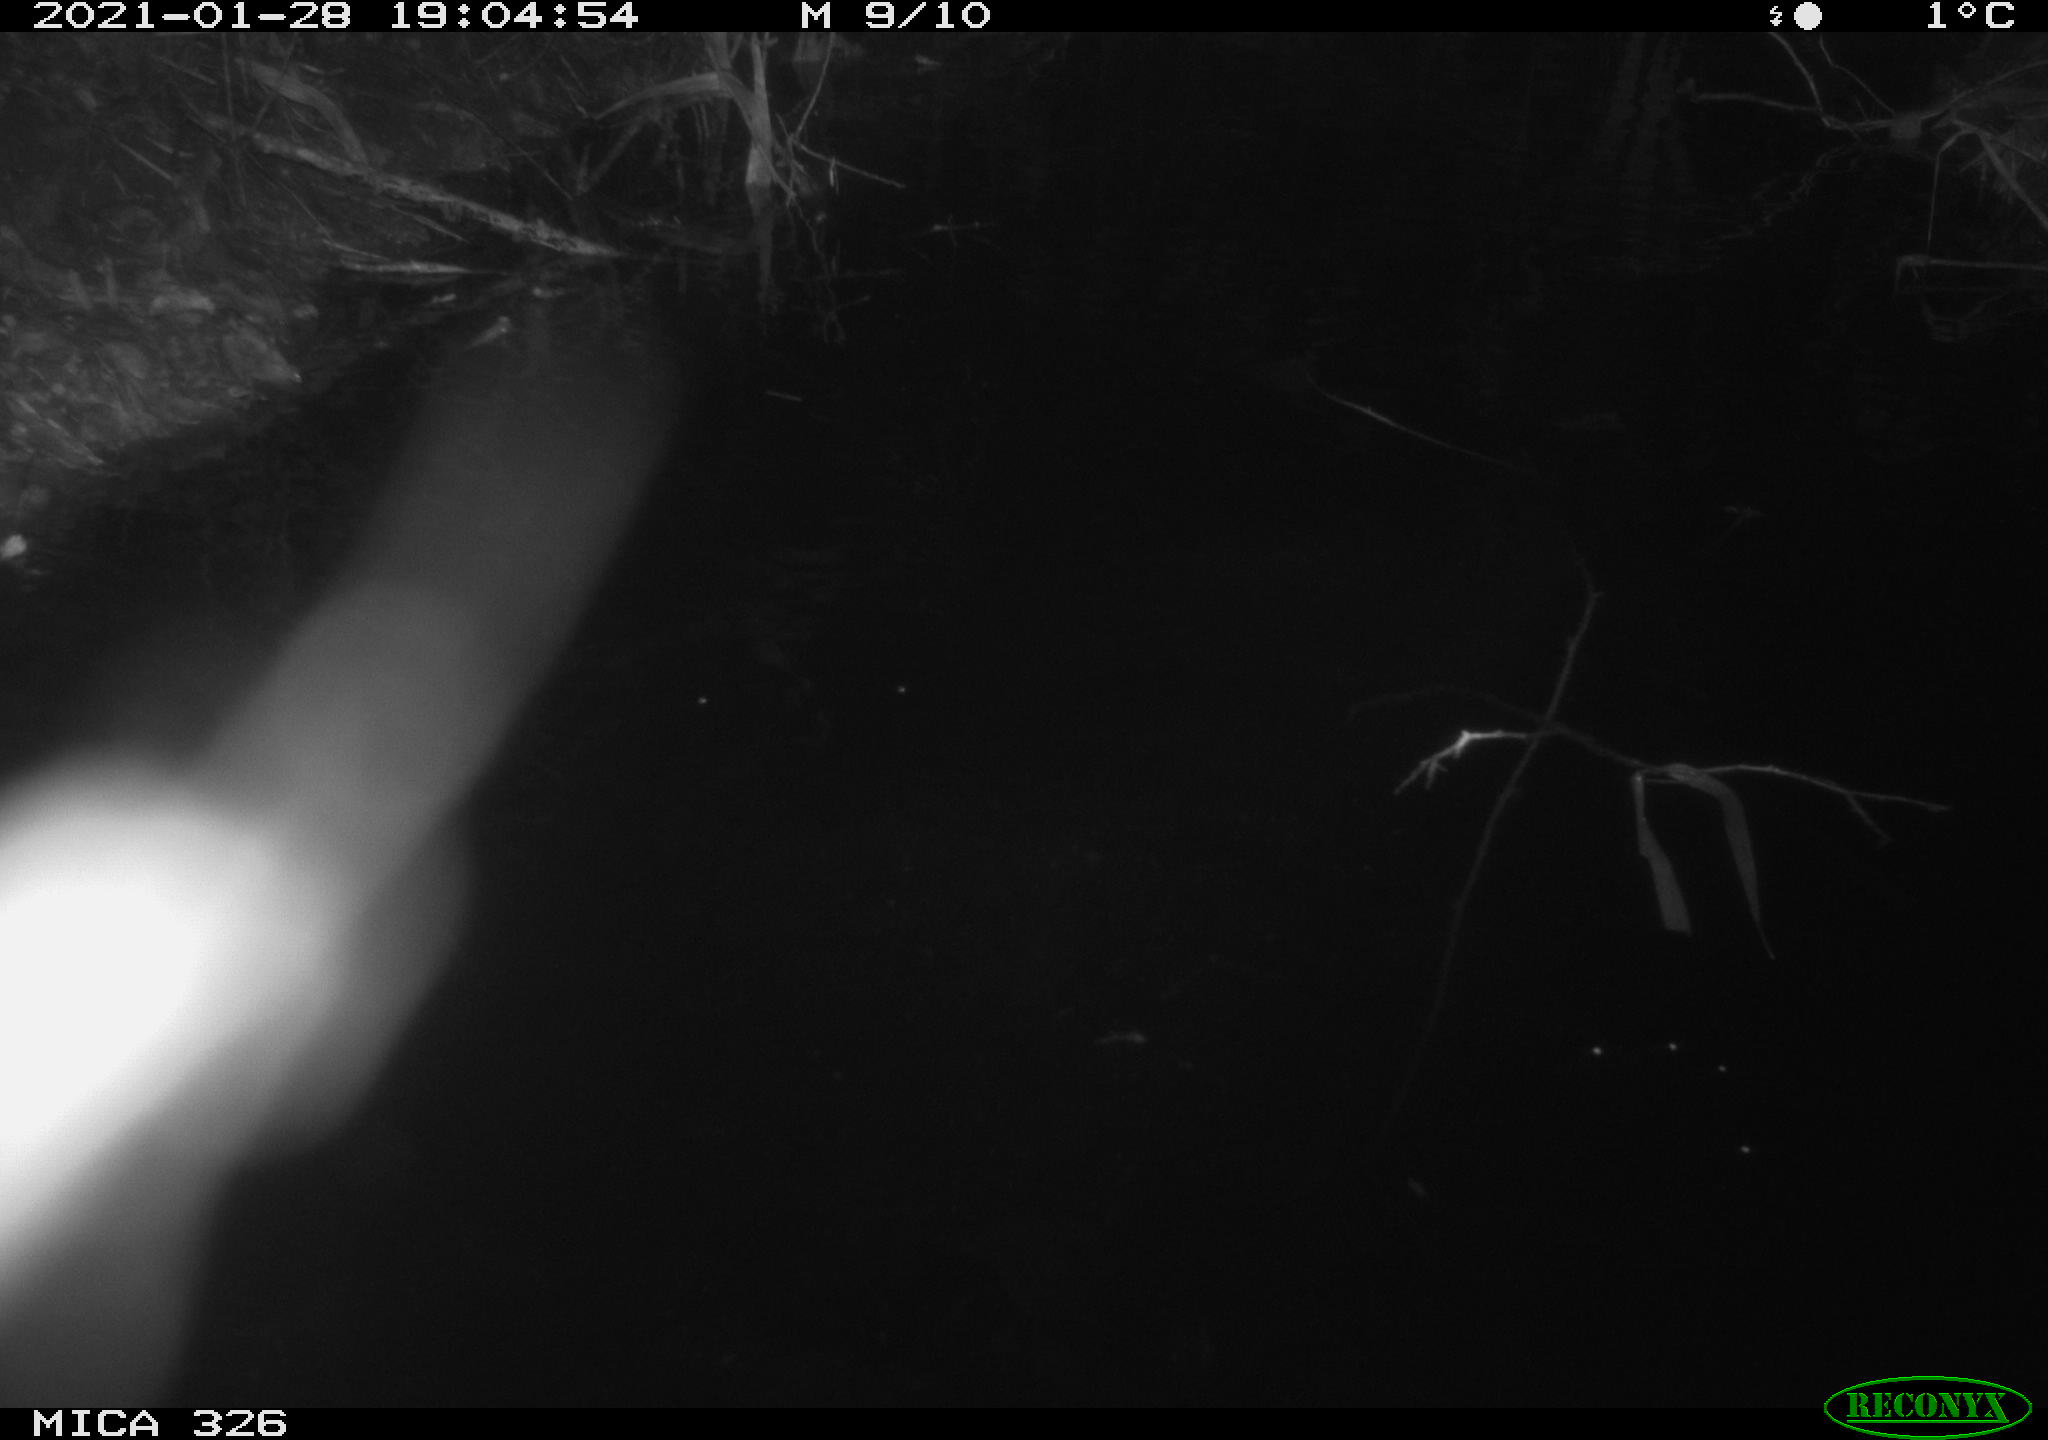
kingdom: Animalia
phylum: Chordata
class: Mammalia
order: Rodentia
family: Myocastoridae
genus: Myocastor
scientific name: Myocastor coypus
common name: Coypu
